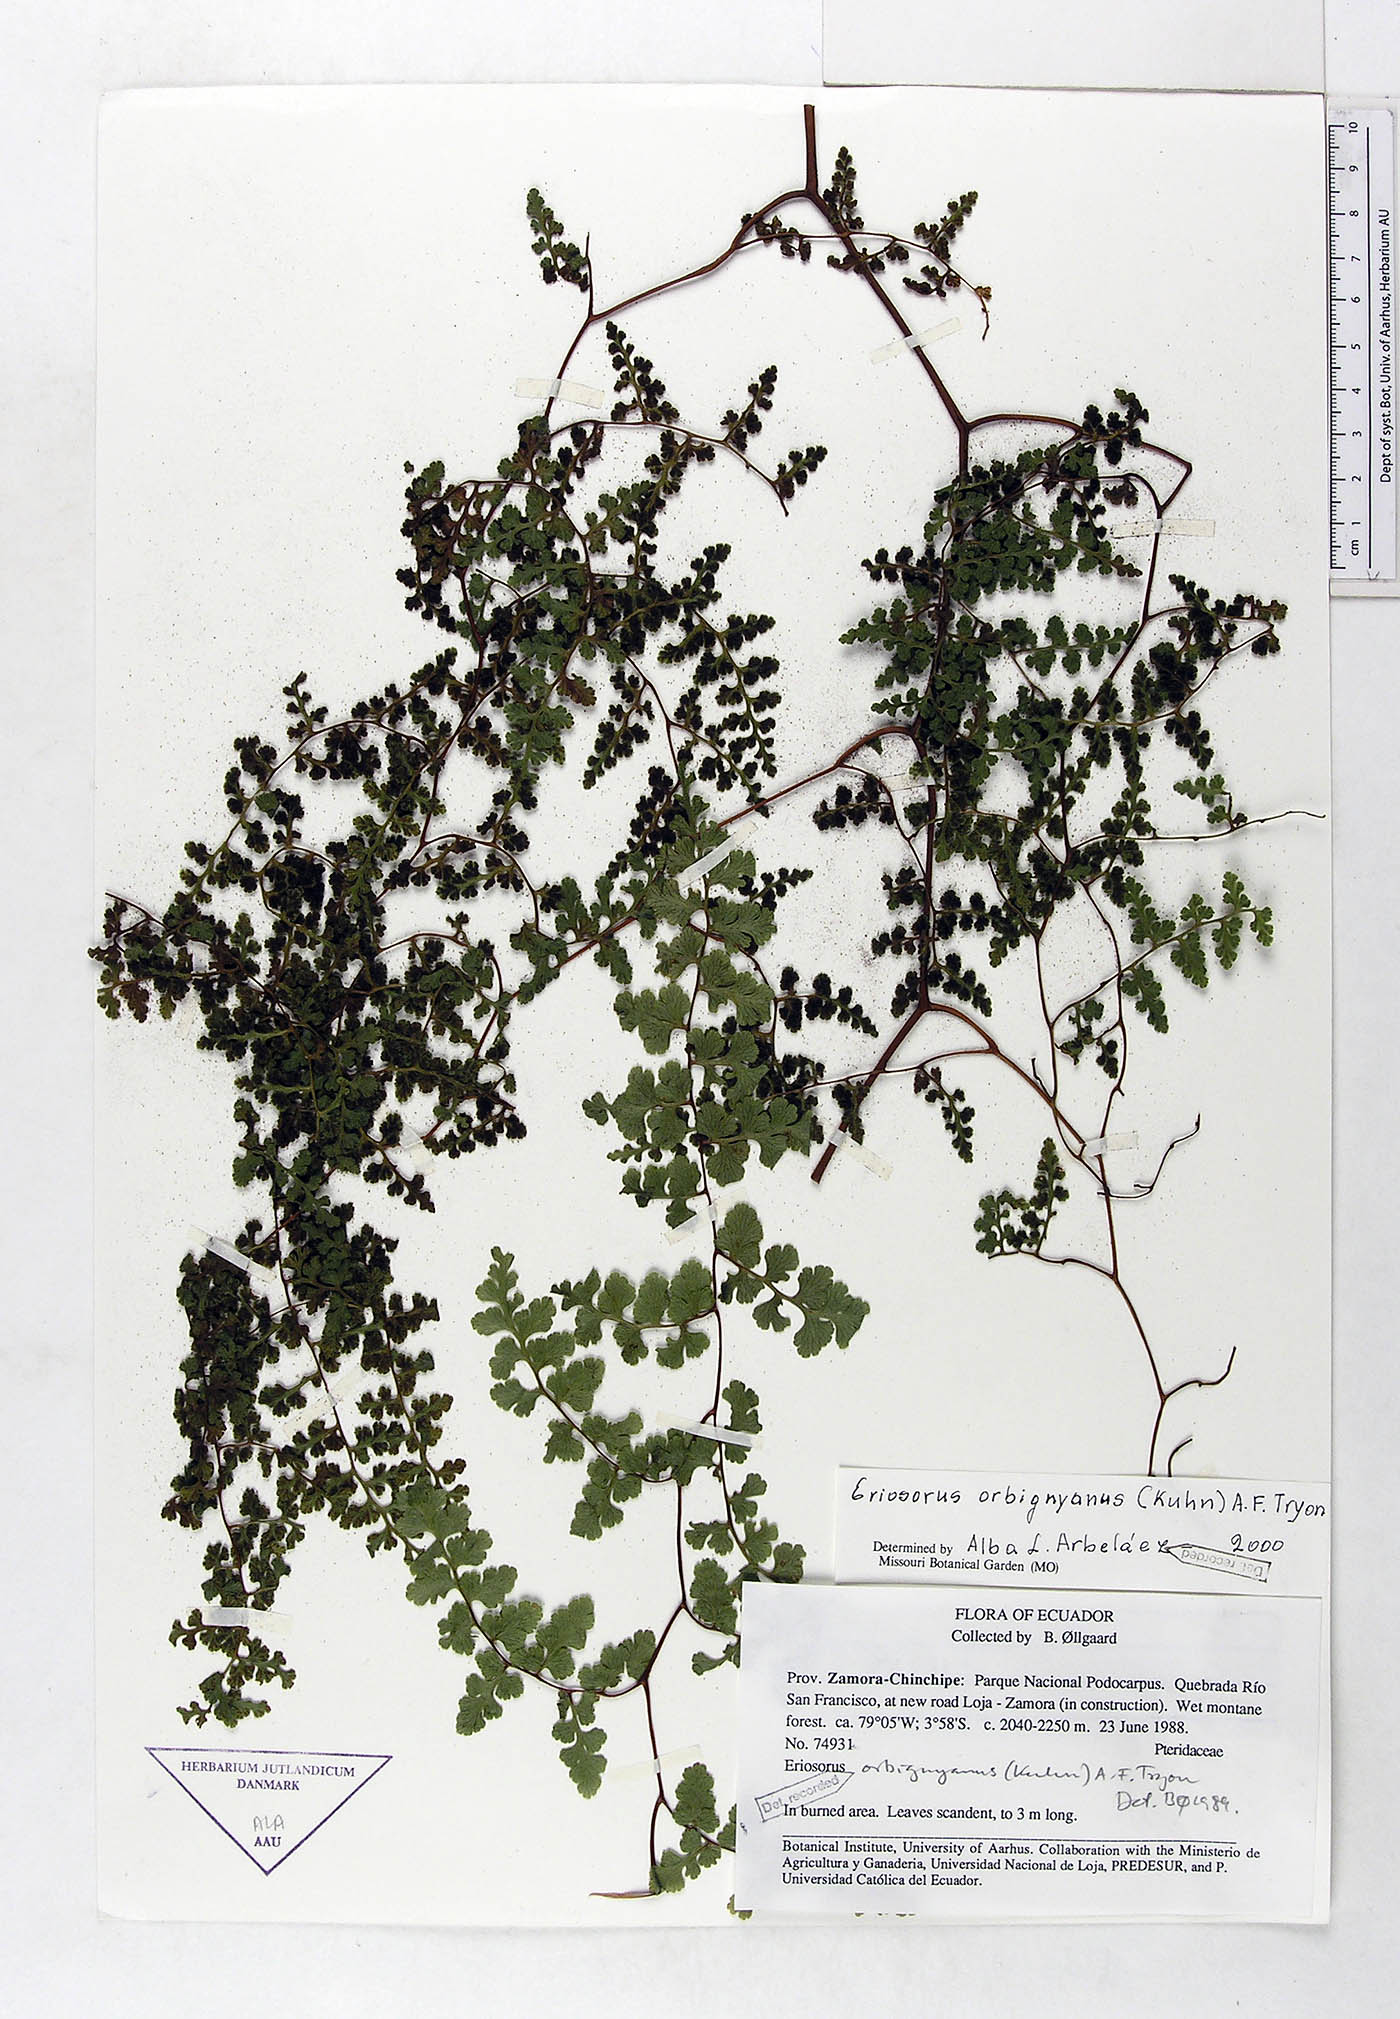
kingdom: Plantae
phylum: Tracheophyta
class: Polypodiopsida
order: Polypodiales
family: Pteridaceae
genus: Jamesonia
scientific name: Jamesonia orbignyana
